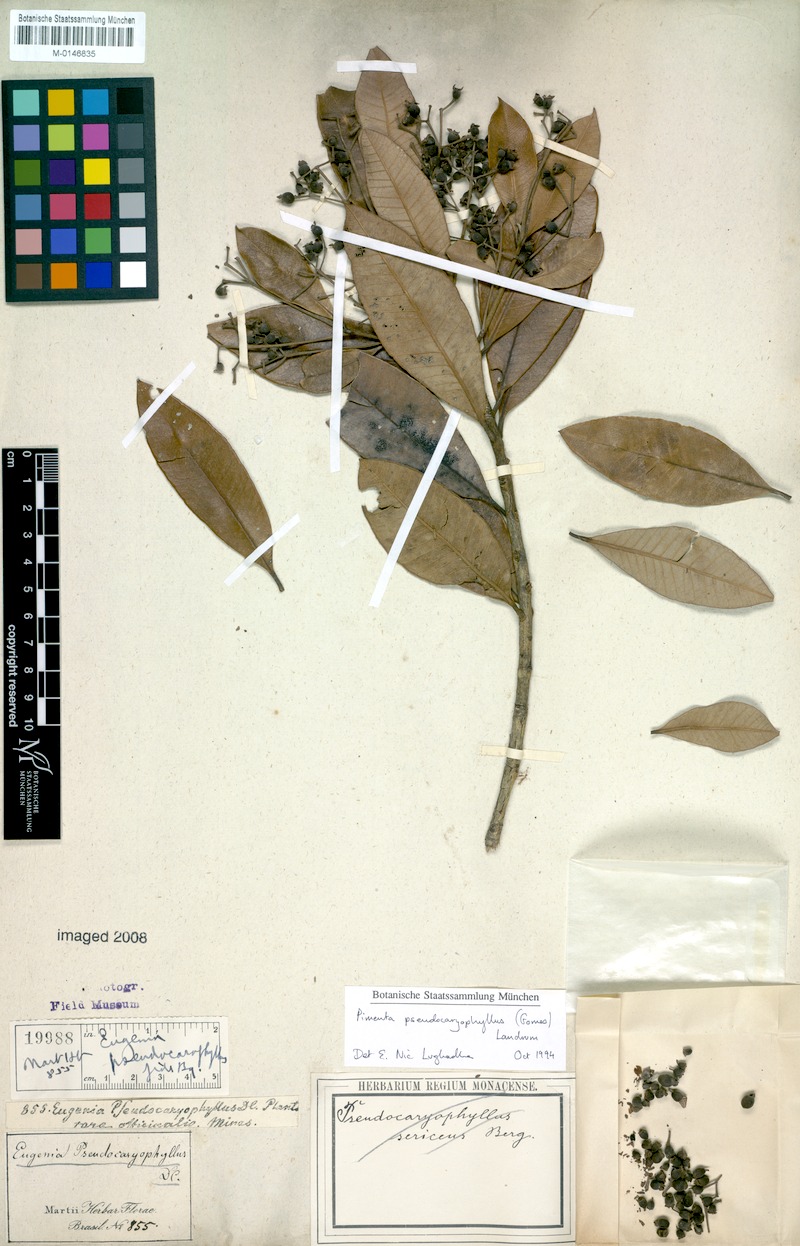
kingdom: Plantae
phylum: Tracheophyta
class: Magnoliopsida
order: Myrtales
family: Myrtaceae
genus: Pimenta
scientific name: Pimenta pseudocaryophyllus
